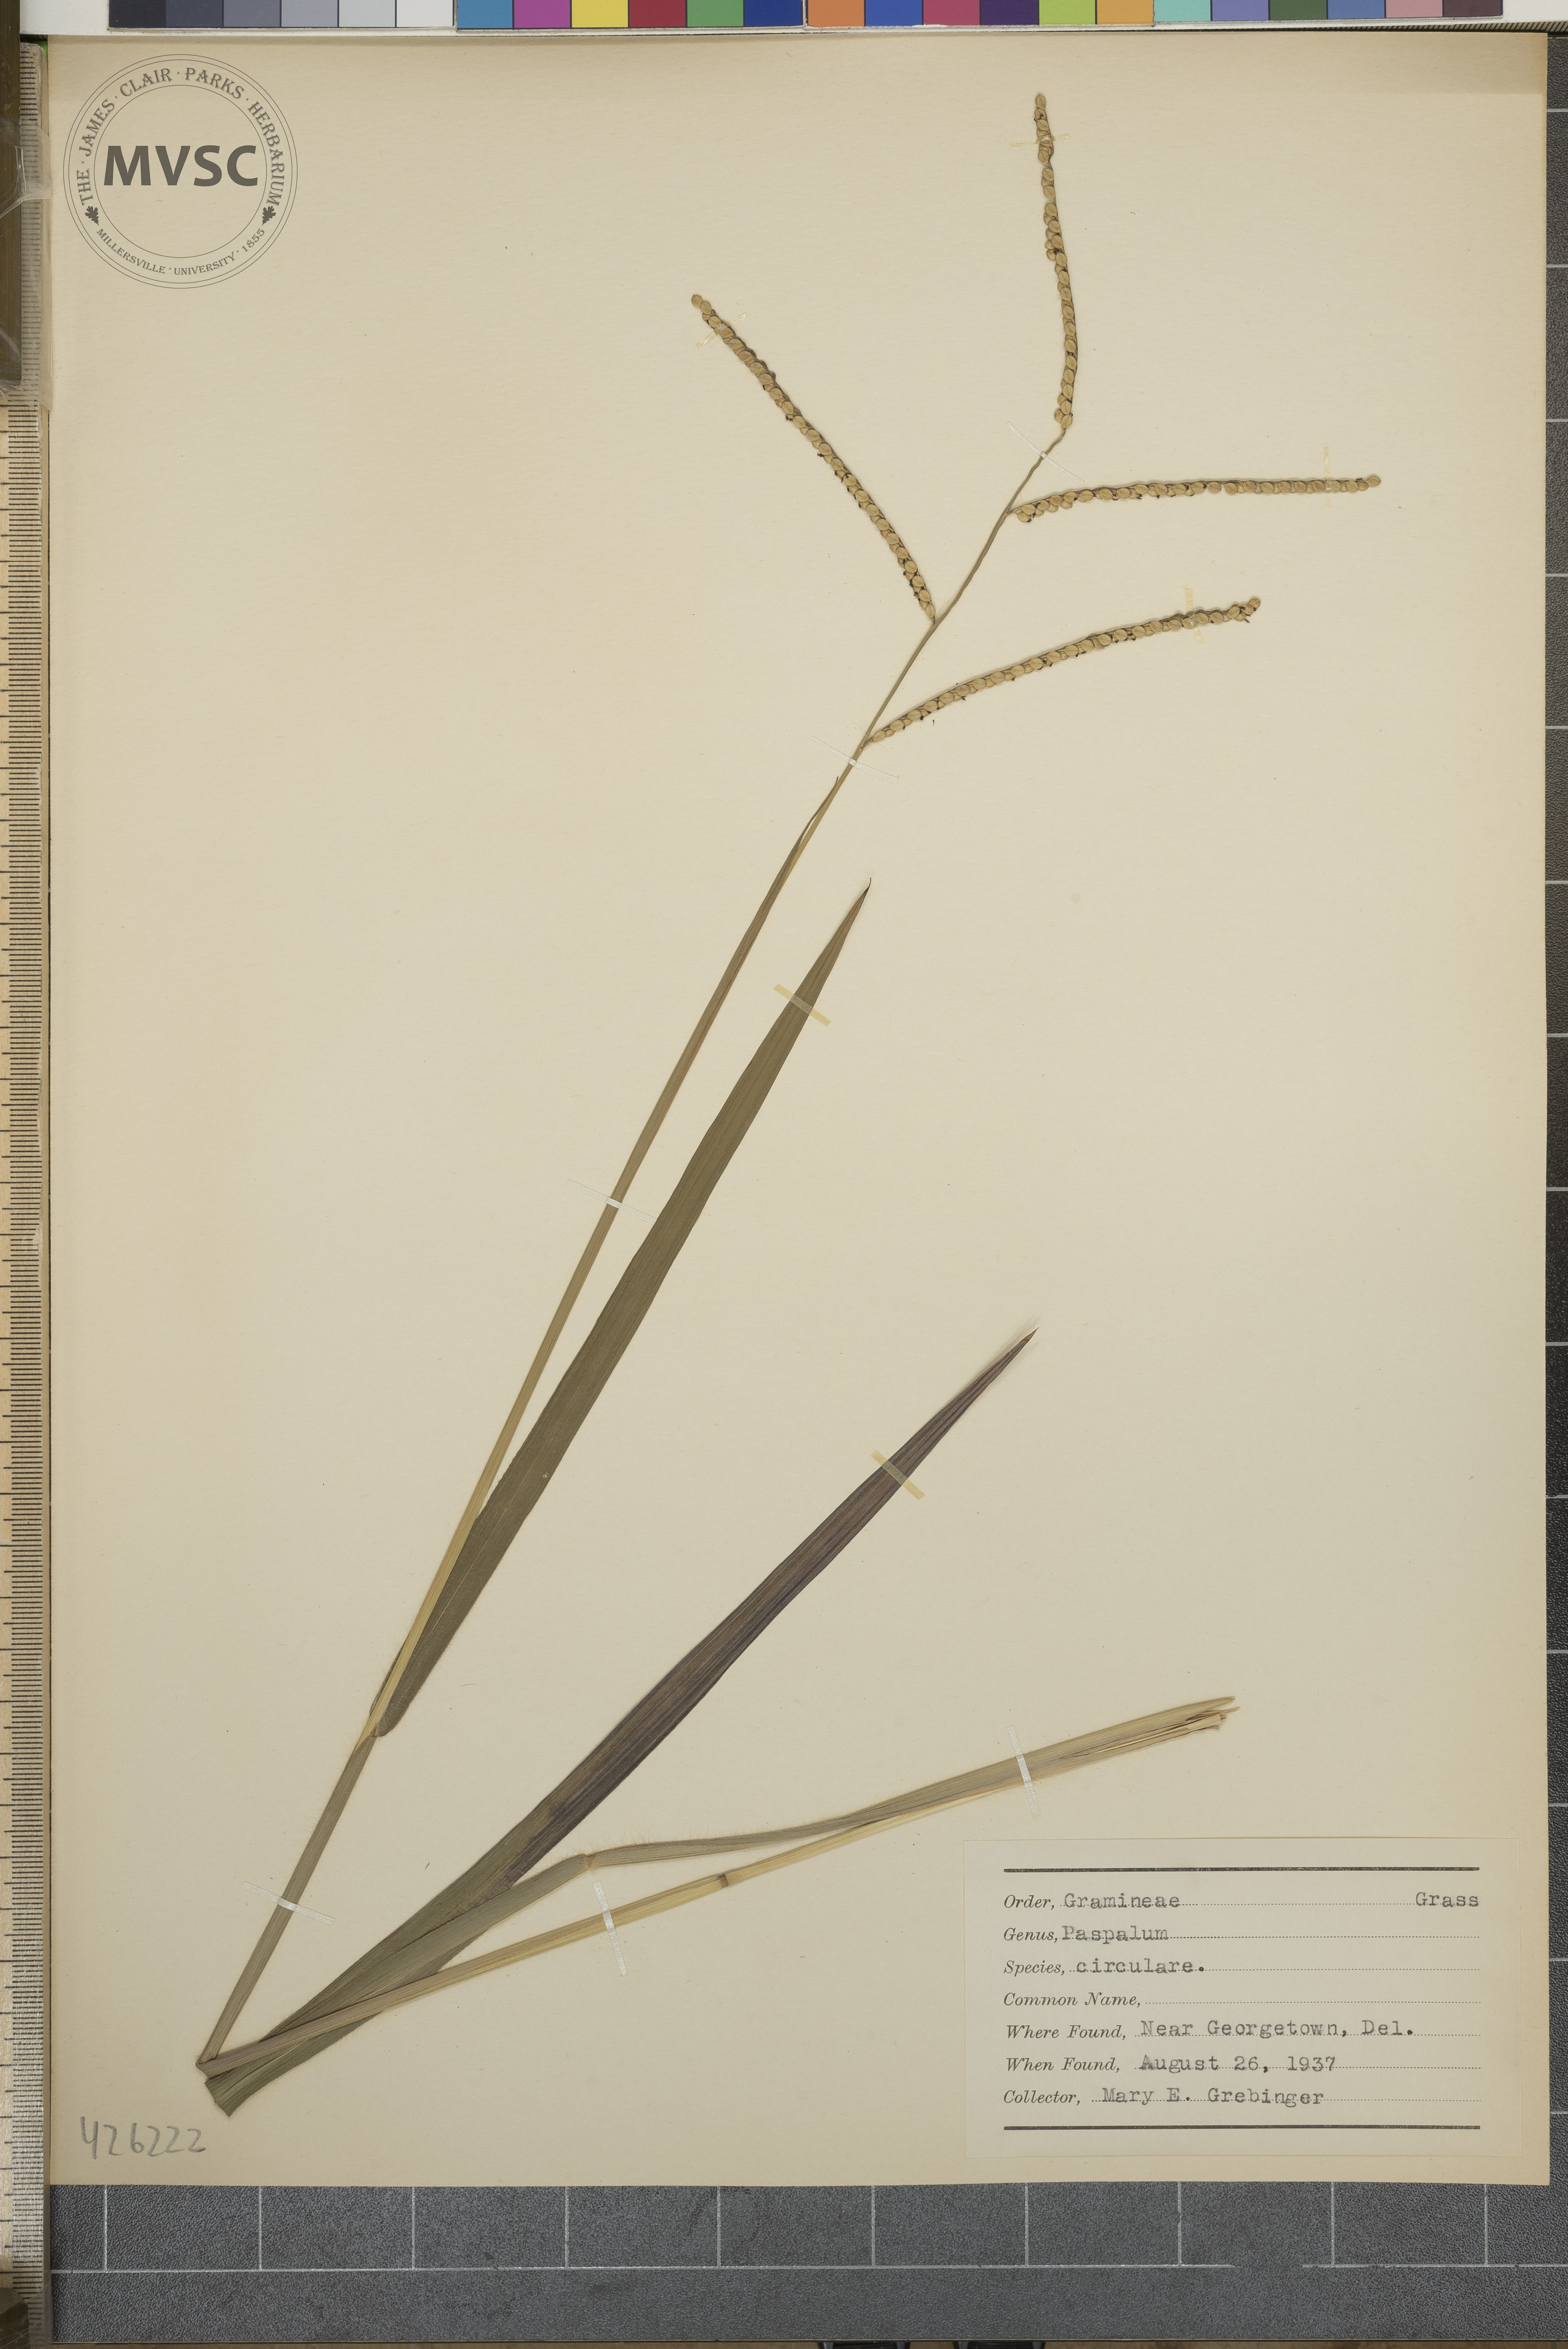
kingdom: Plantae
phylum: Tracheophyta
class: Liliopsida
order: Poales
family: Poaceae
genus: Paspalum
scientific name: Paspalum laeve
